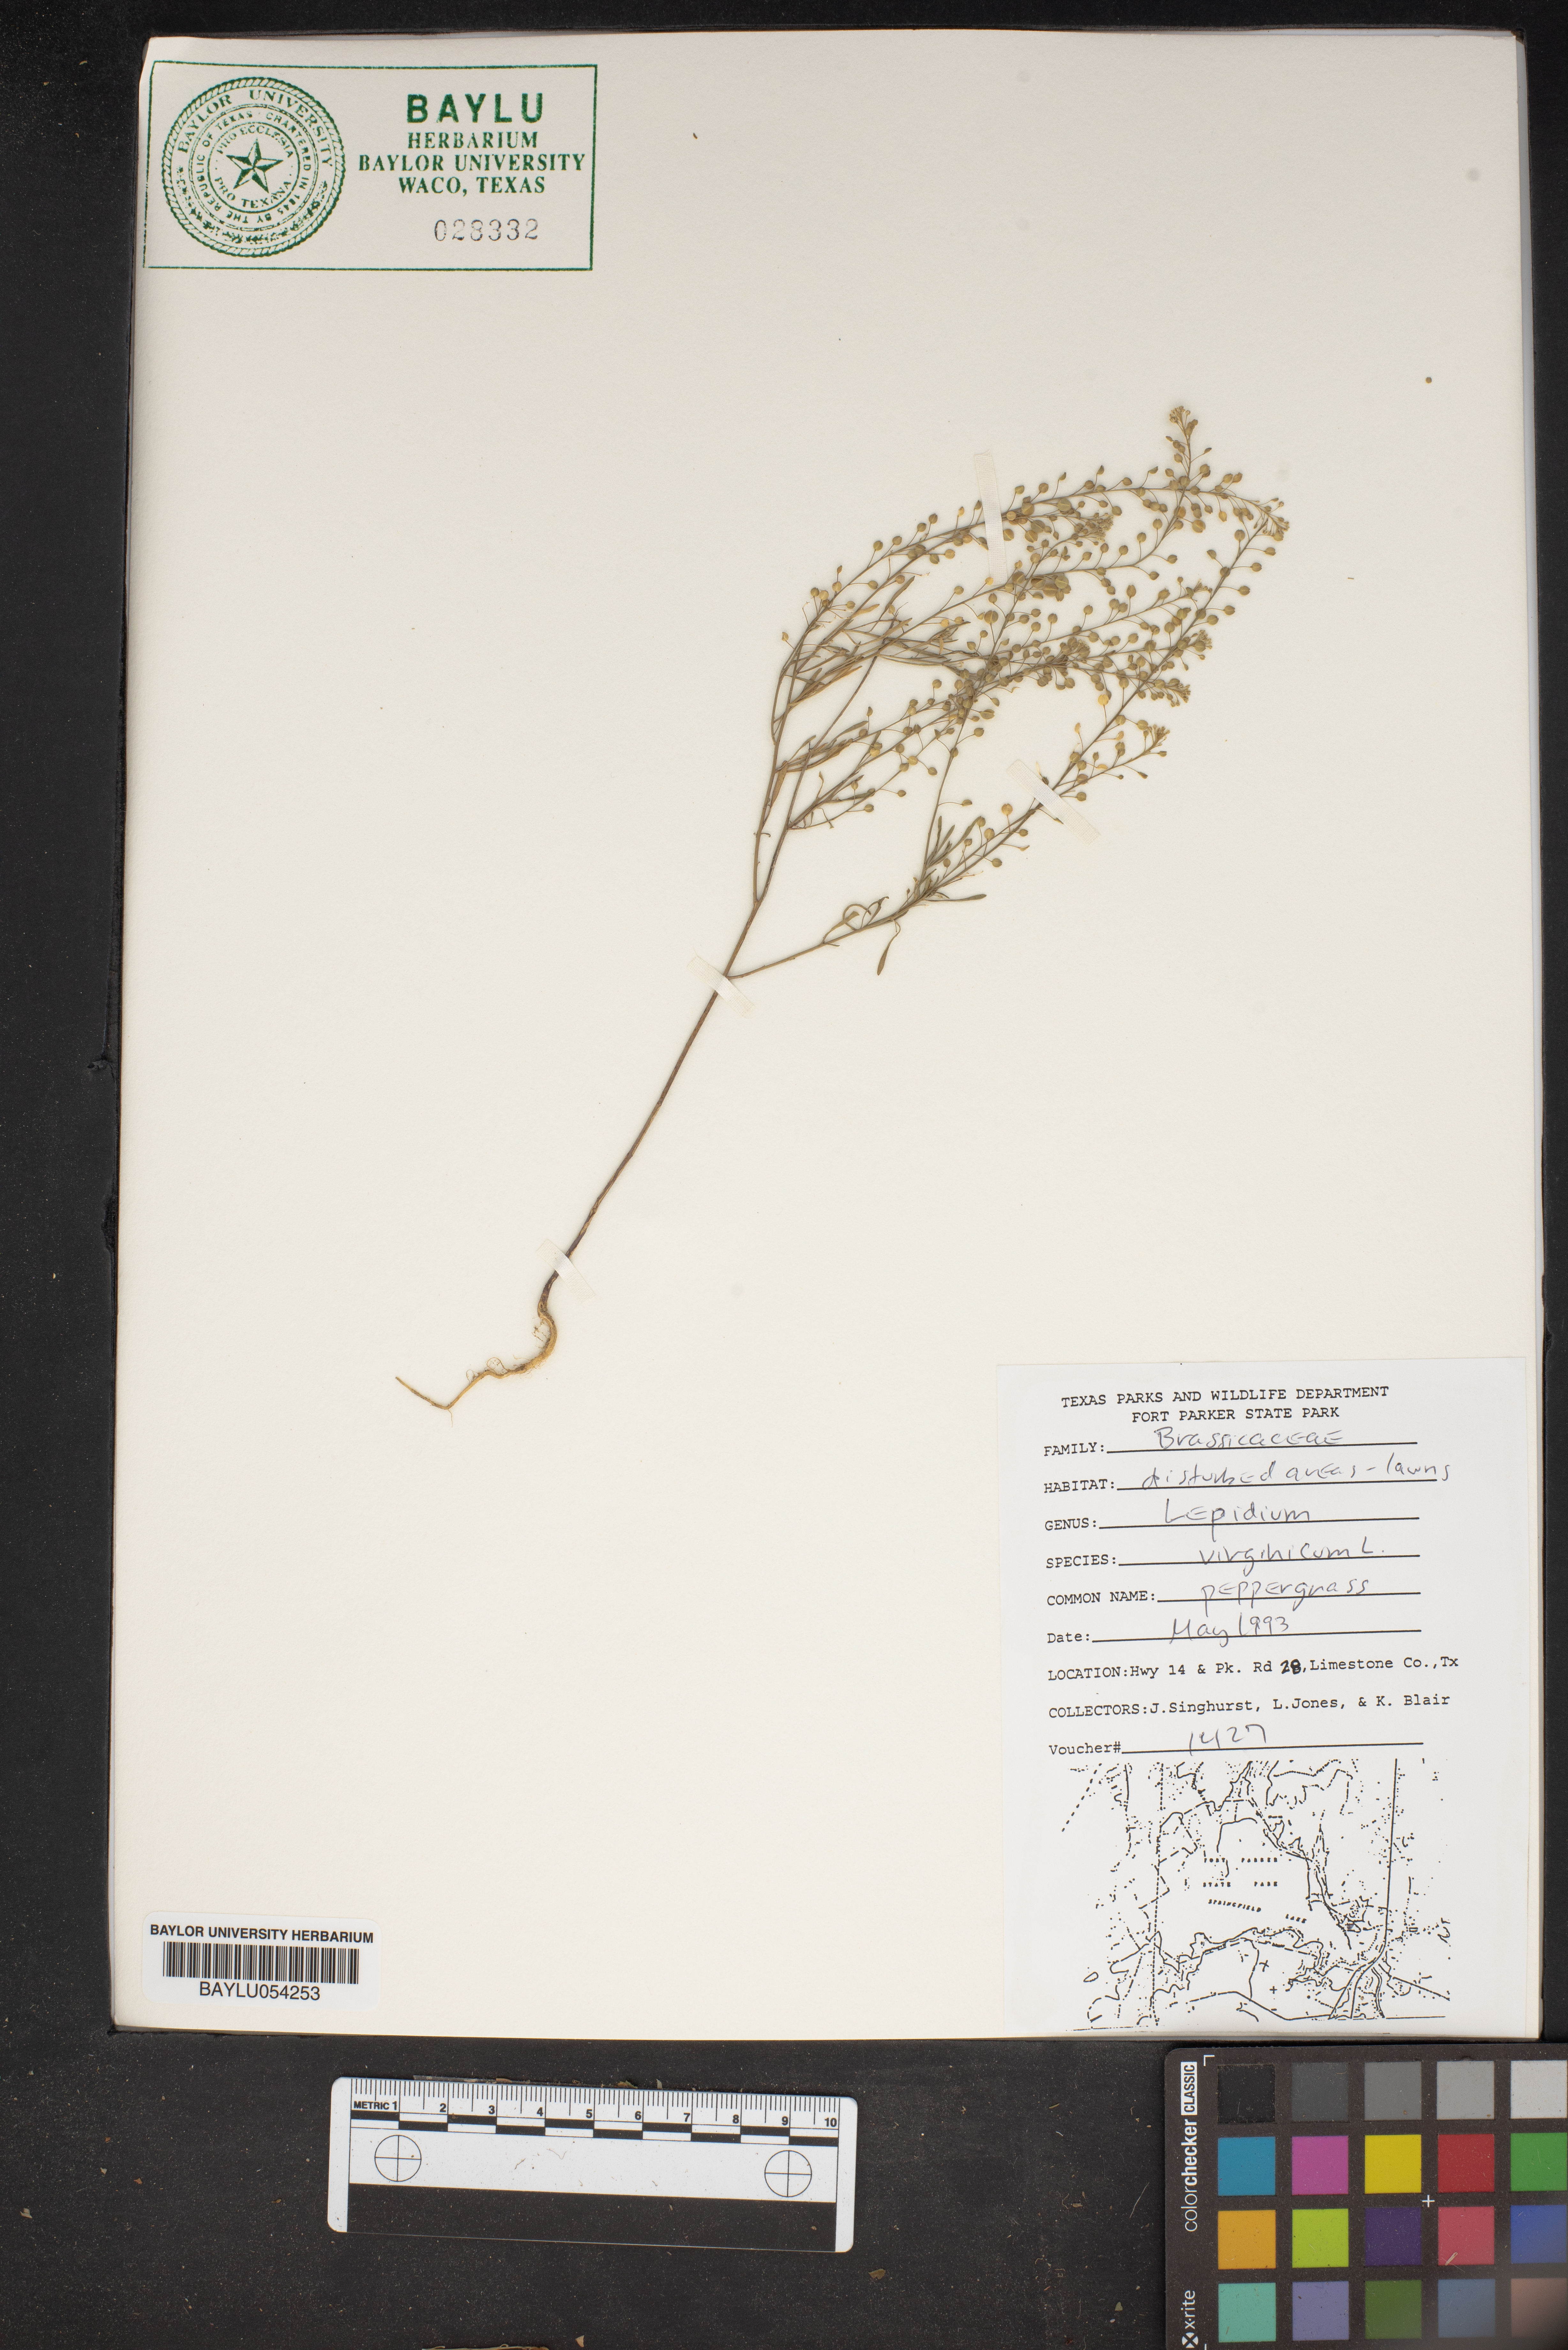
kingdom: Plantae
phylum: Tracheophyta
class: Magnoliopsida
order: Brassicales
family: Brassicaceae
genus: Lepidium
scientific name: Lepidium virginicum
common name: Least pepperwort
